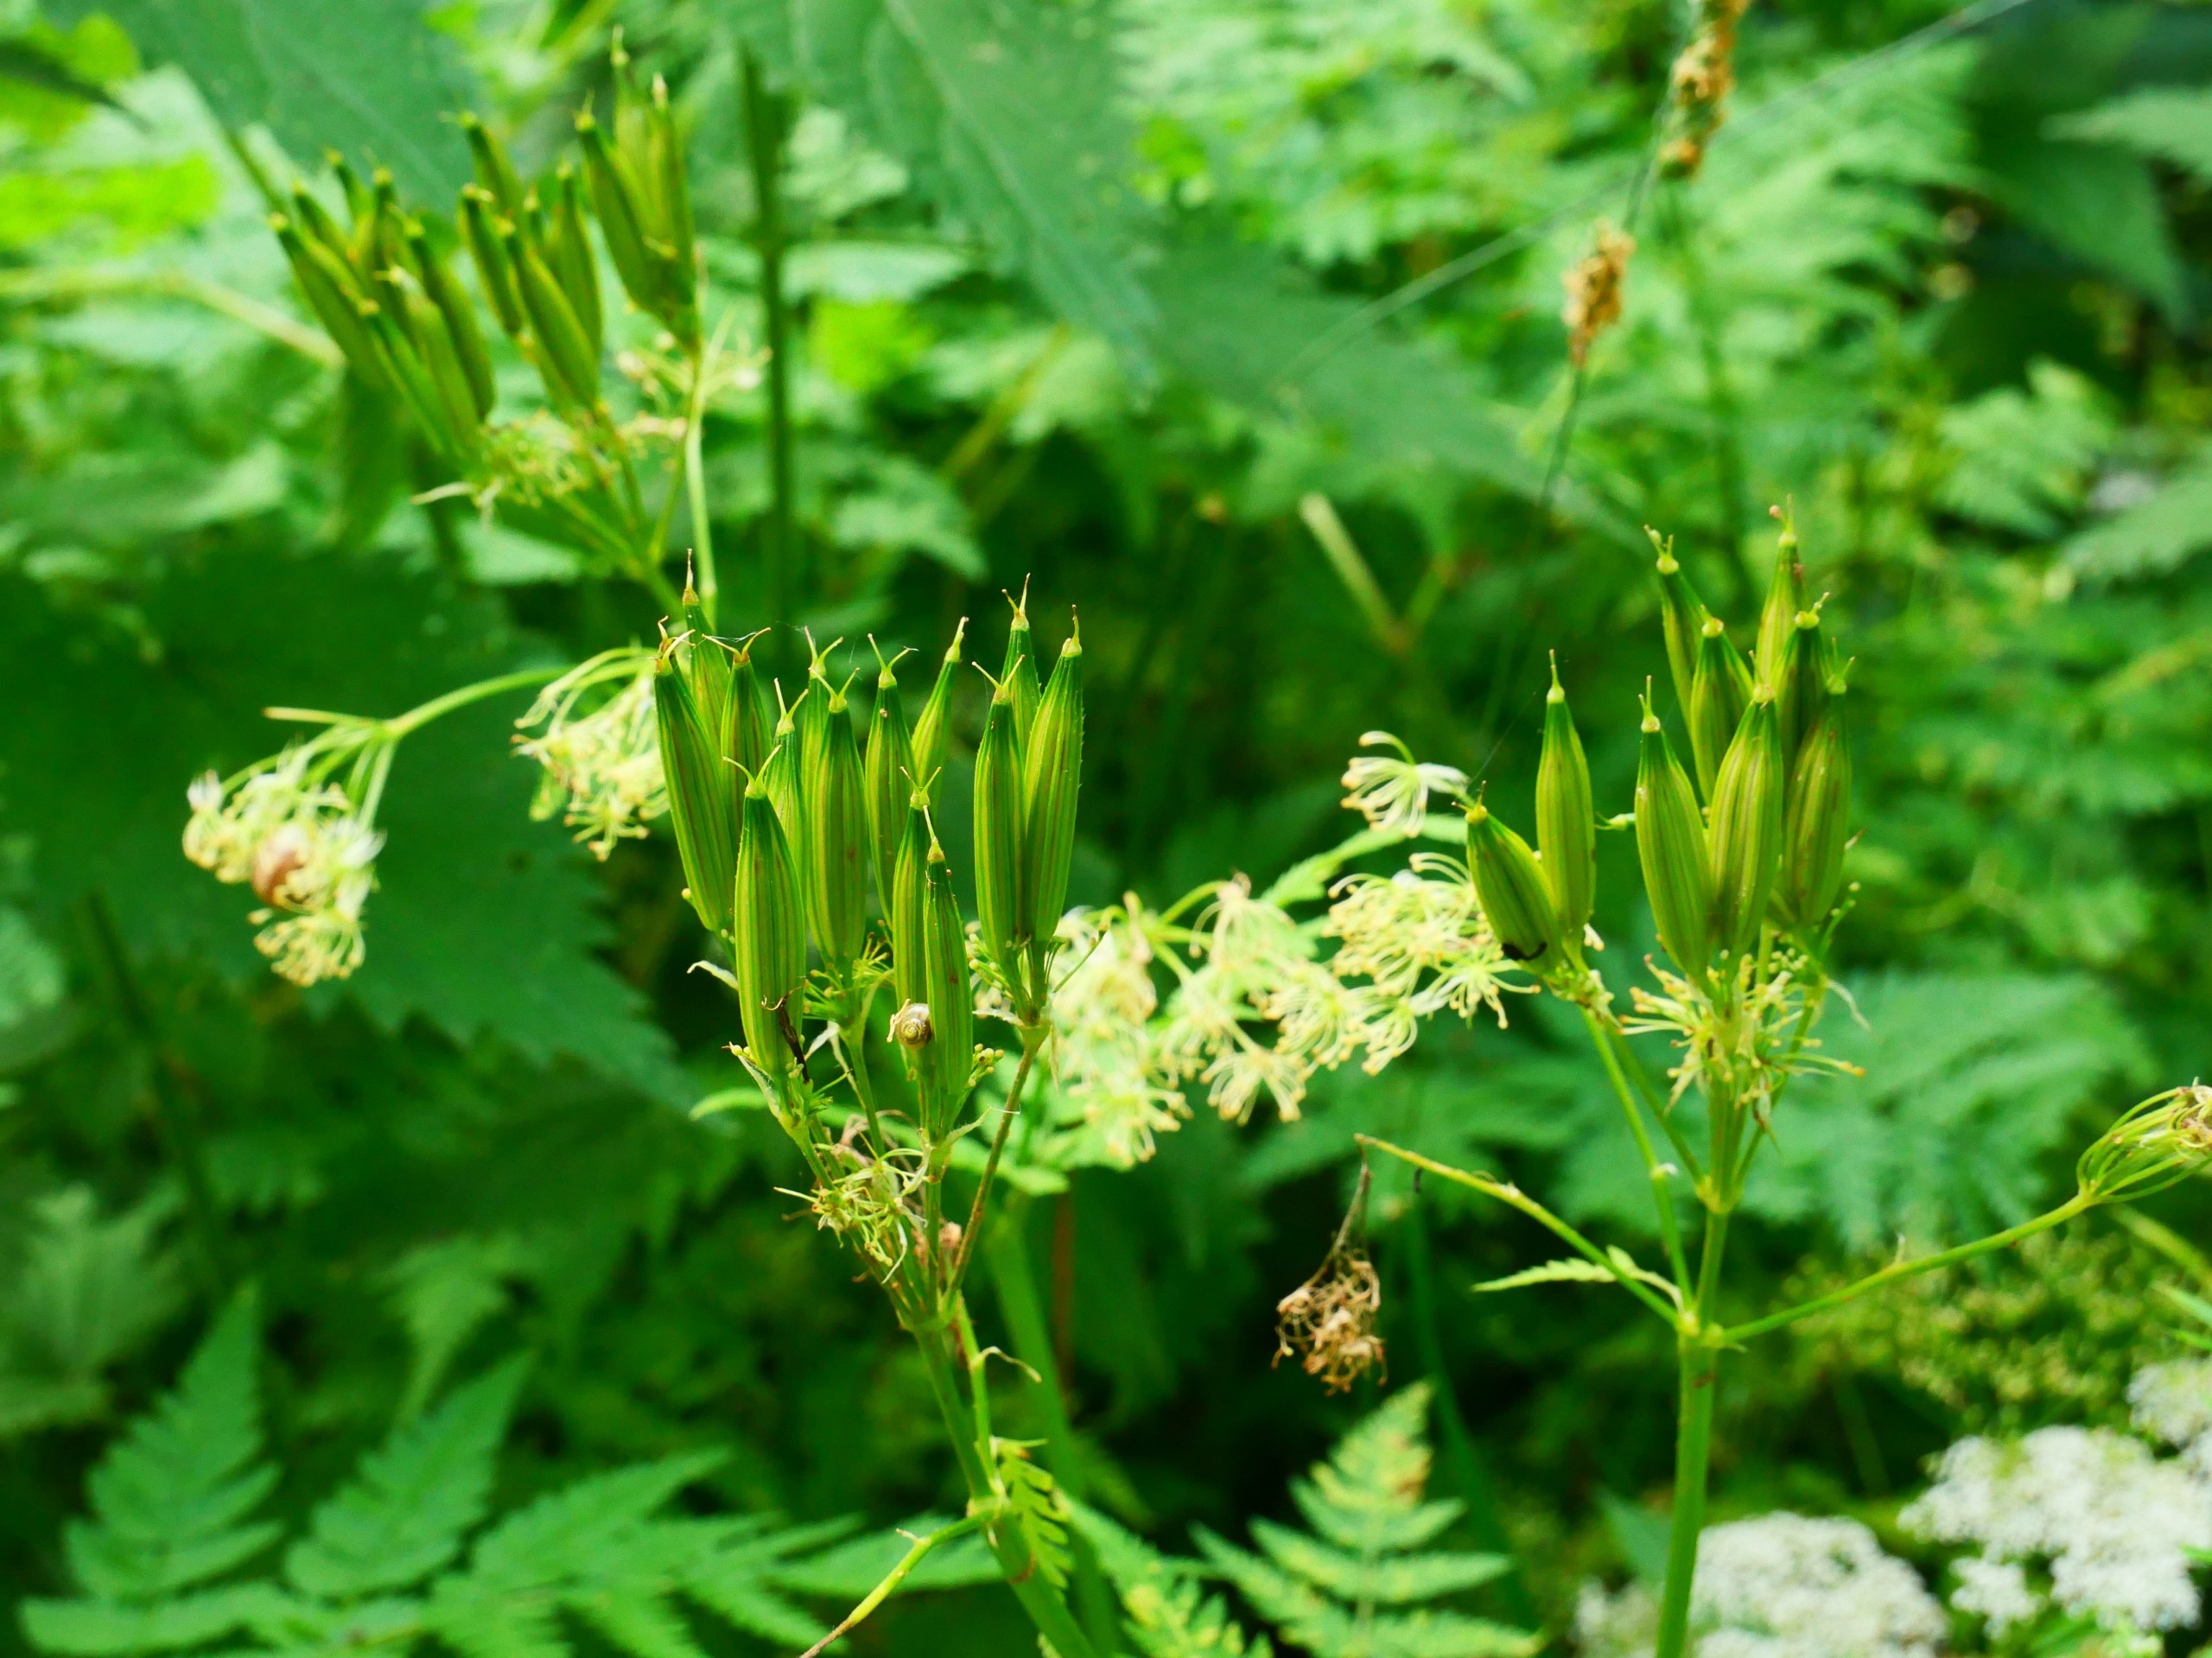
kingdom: Plantae
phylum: Tracheophyta
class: Magnoliopsida
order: Apiales
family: Apiaceae
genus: Myrrhis
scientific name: Myrrhis odorata
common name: Sødskærm
